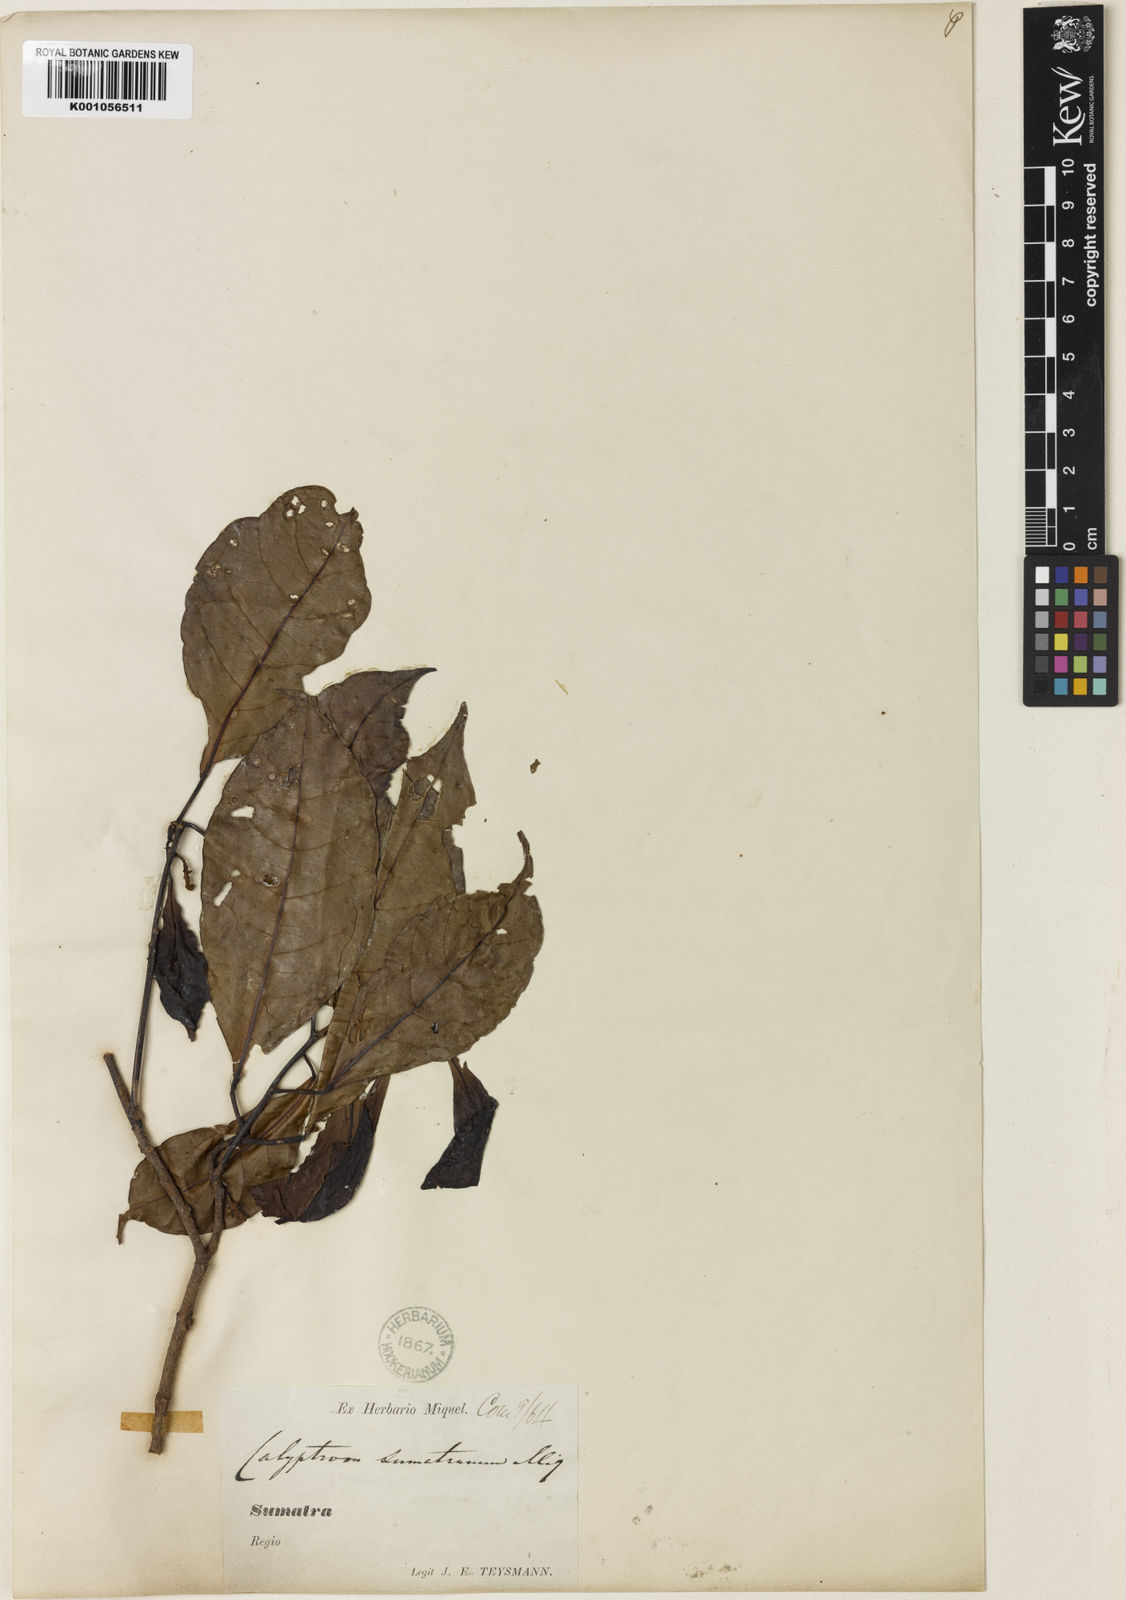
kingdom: Plantae
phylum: Tracheophyta
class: Magnoliopsida
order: Malpighiales
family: Phyllanthaceae
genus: Baccaurea
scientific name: Baccaurea
